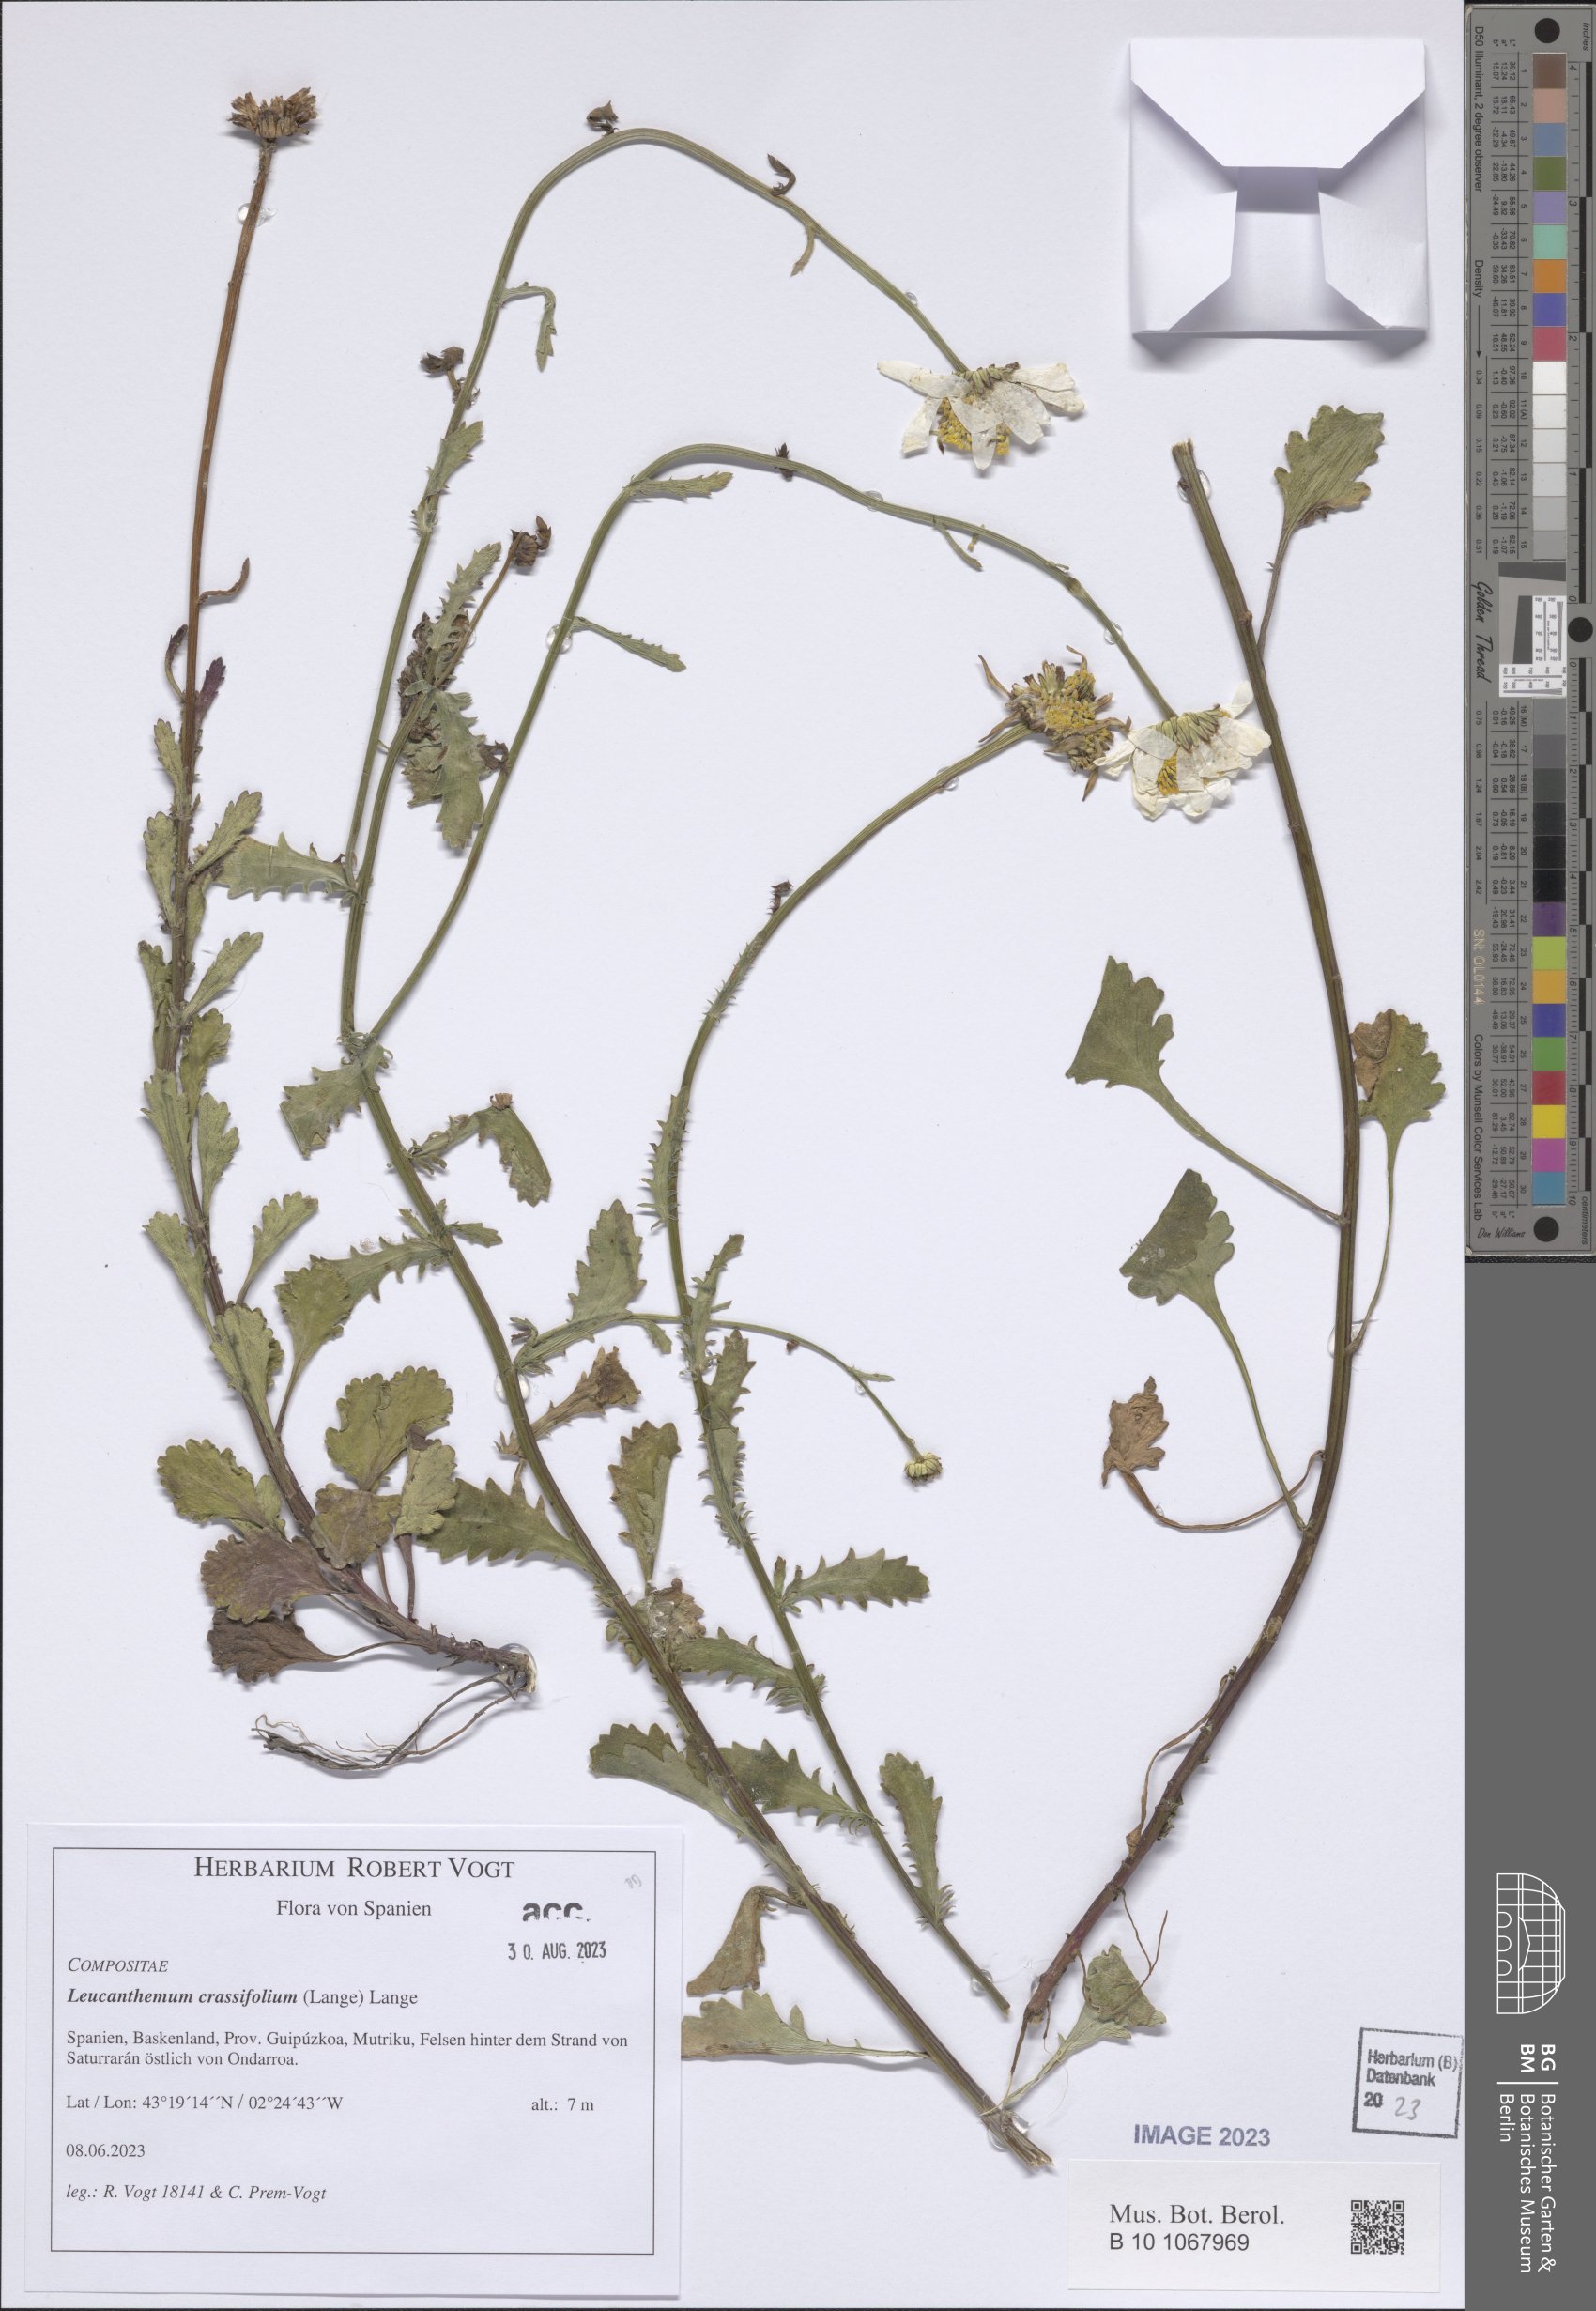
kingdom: Plantae
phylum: Tracheophyta
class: Magnoliopsida
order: Asterales
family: Asteraceae
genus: Leucanthemum
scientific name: Leucanthemum crassifolium
